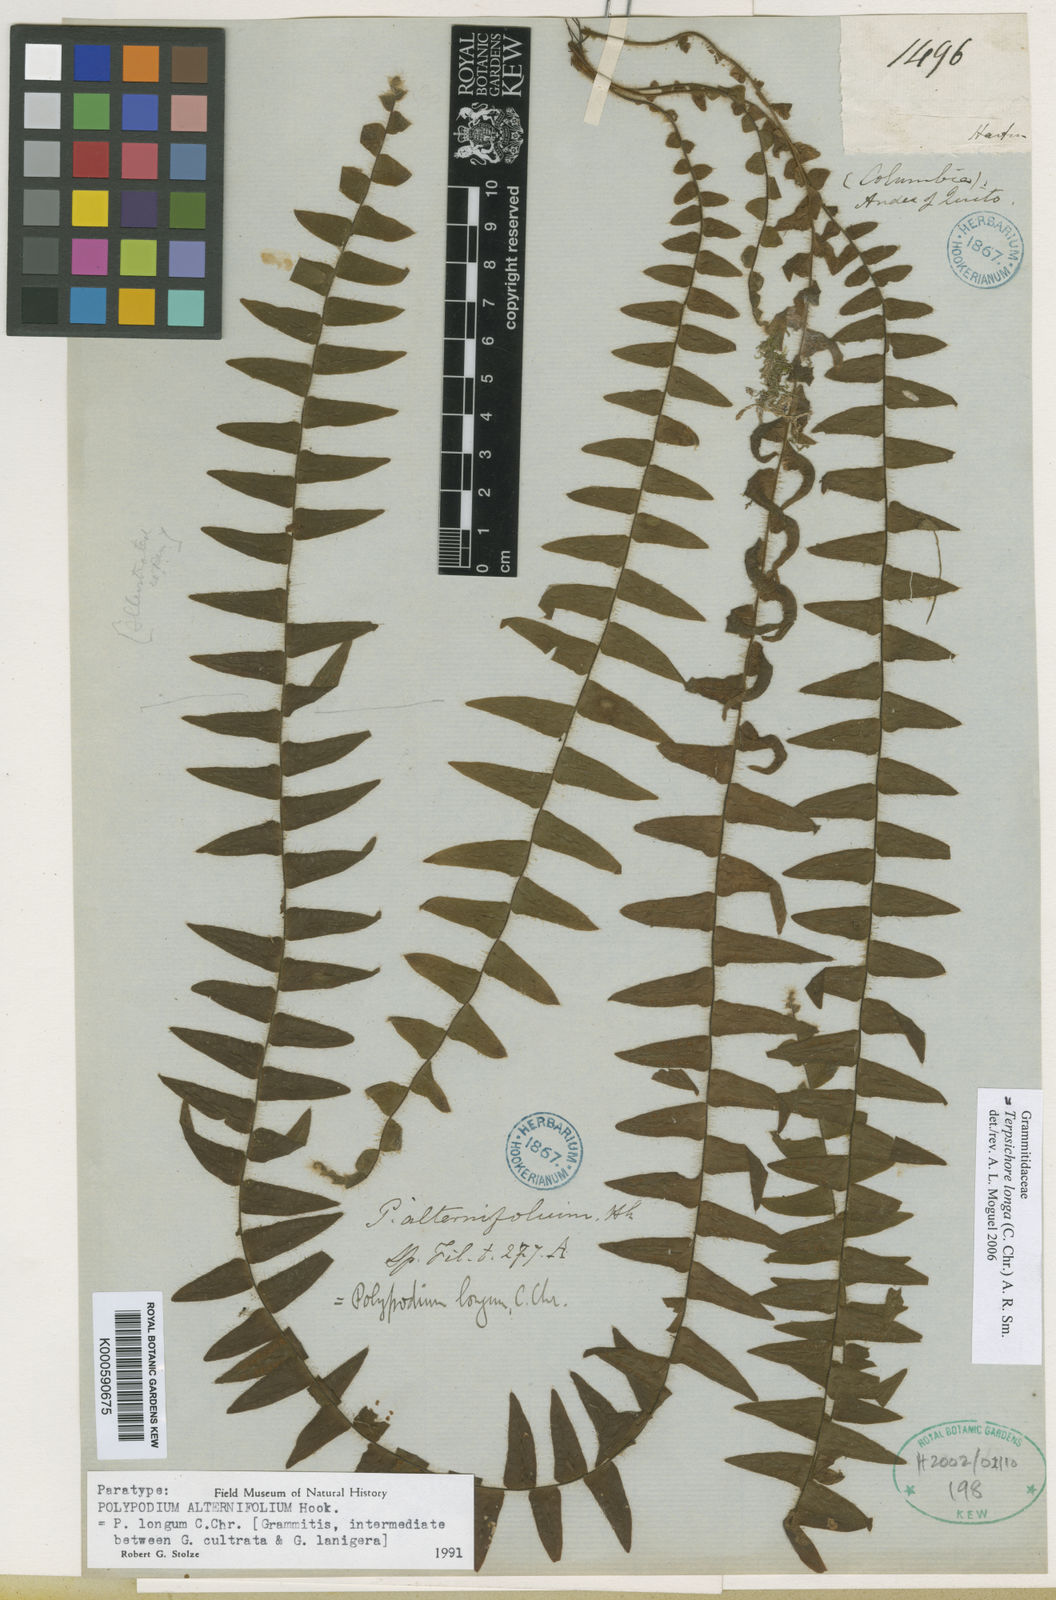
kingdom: Plantae
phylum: Tracheophyta
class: Polypodiopsida
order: Polypodiales
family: Polypodiaceae
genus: Alansmia
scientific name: Alansmia longa
